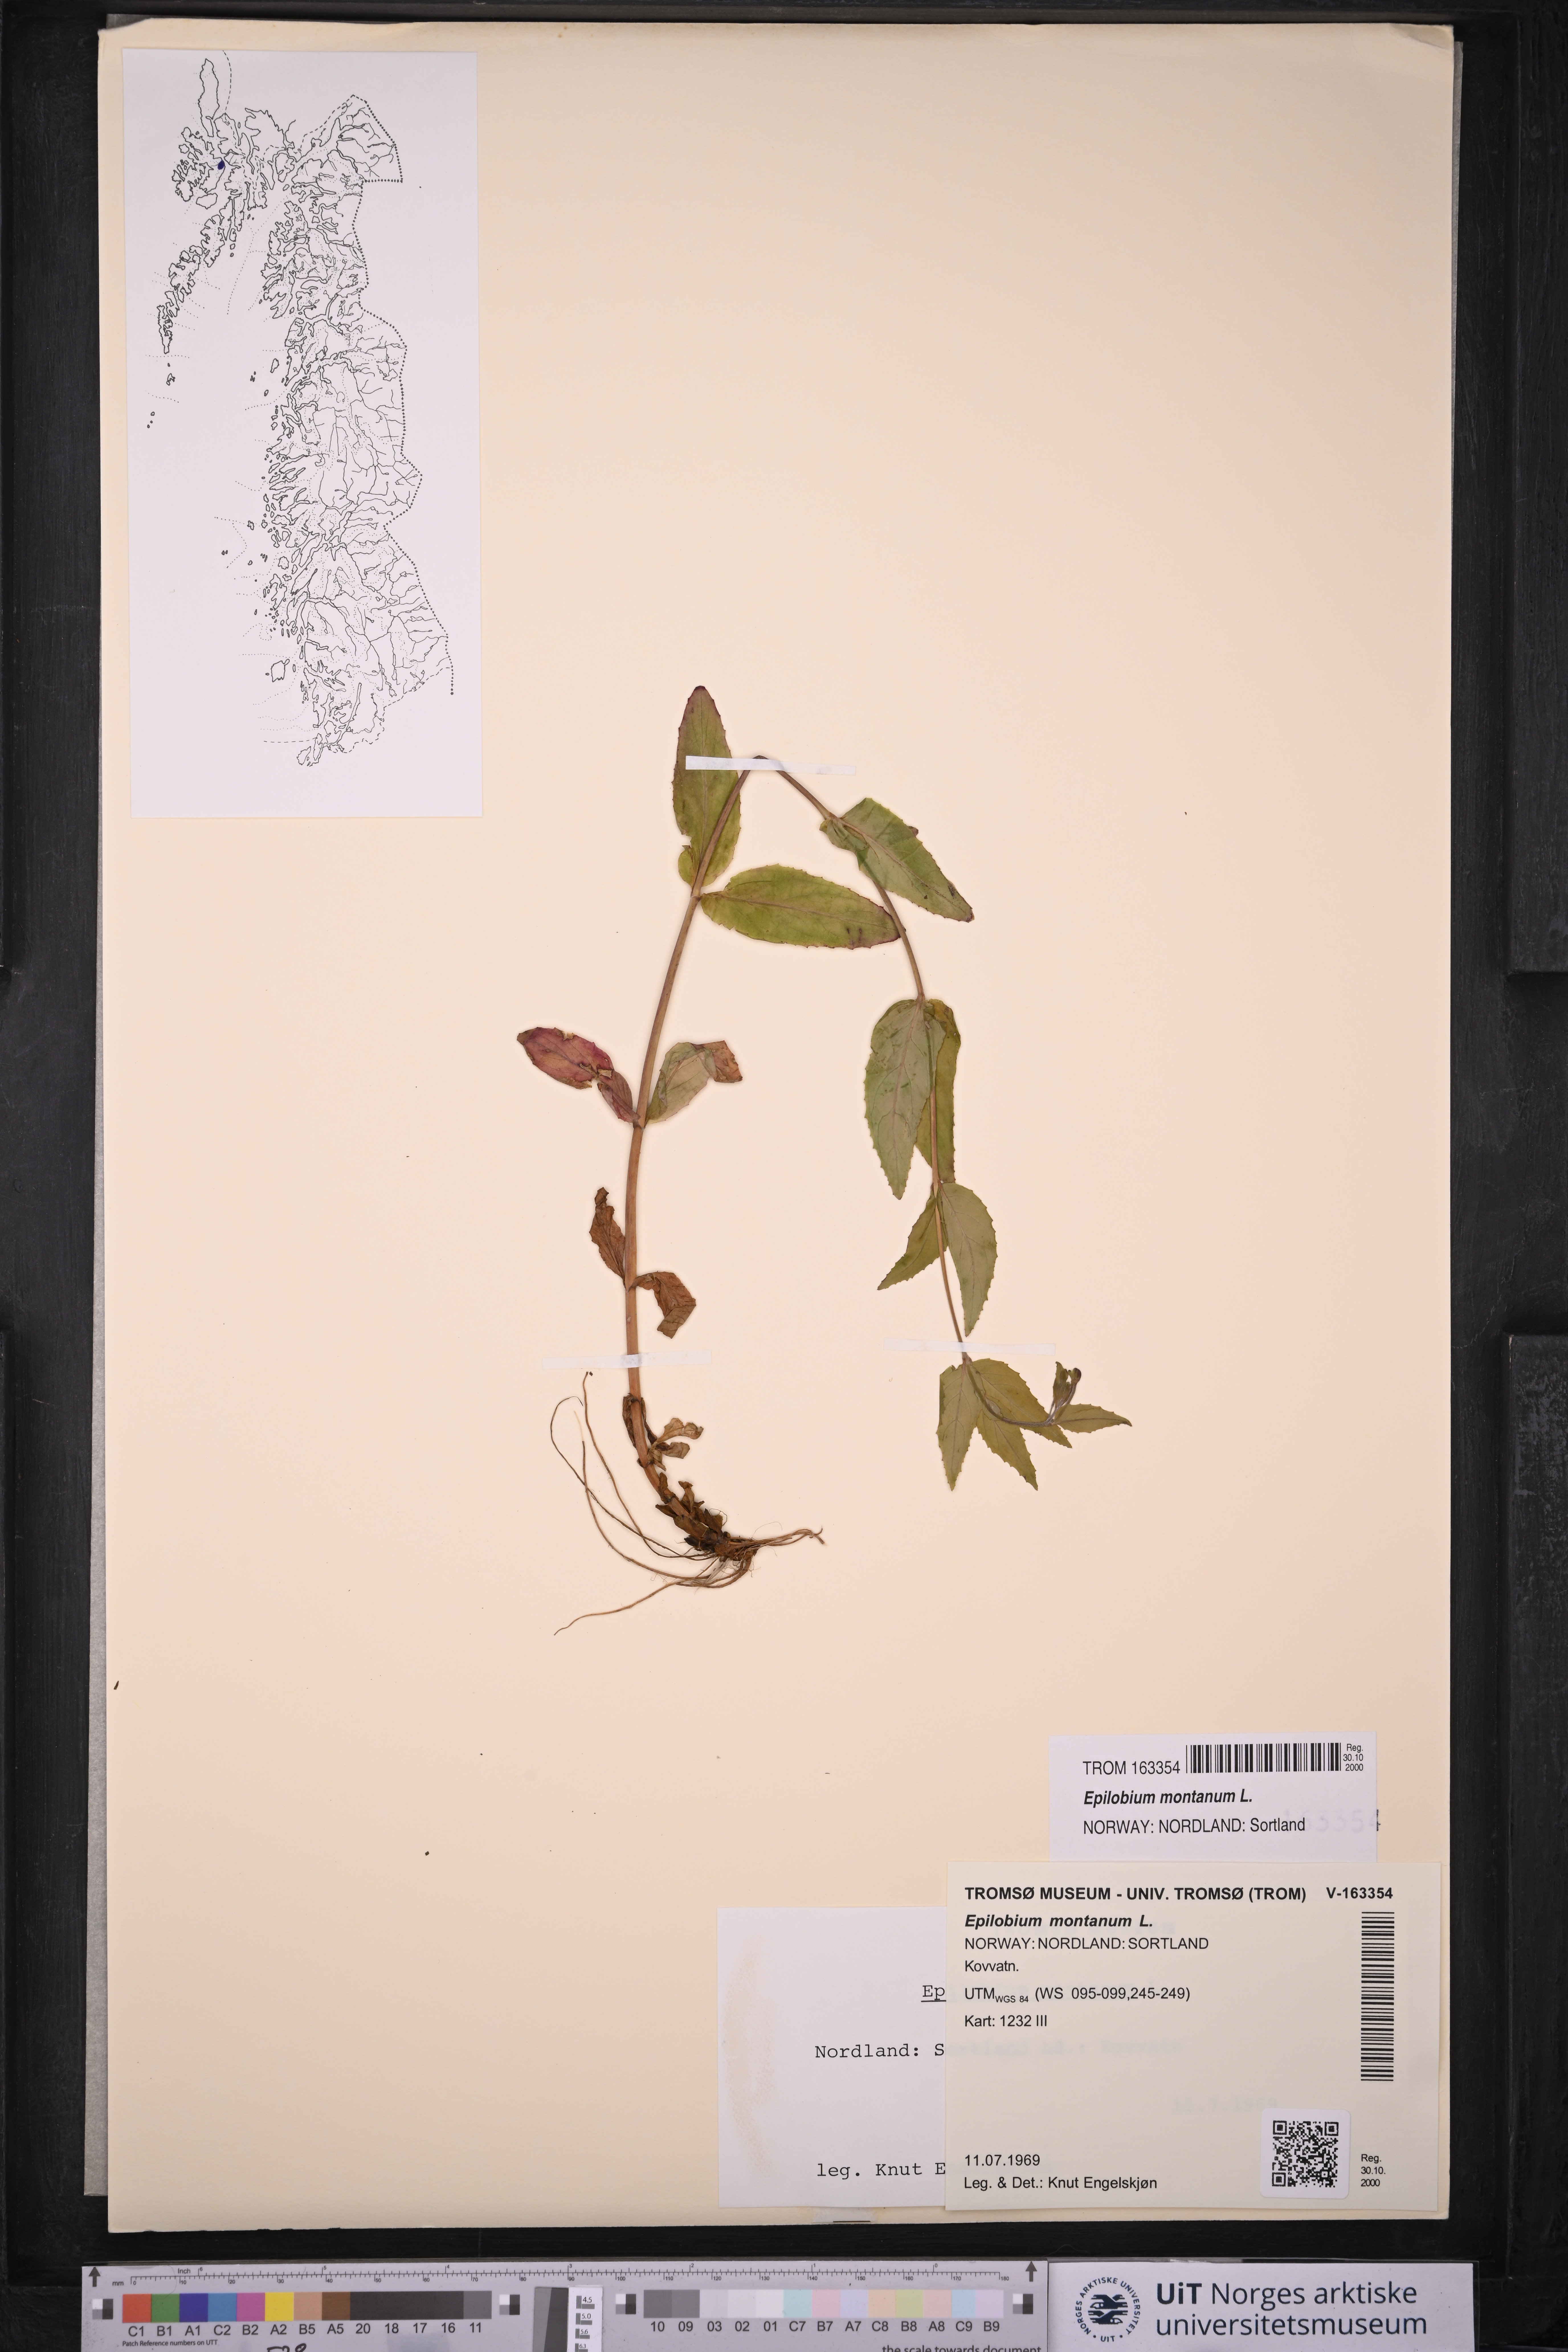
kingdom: Plantae
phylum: Tracheophyta
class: Magnoliopsida
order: Myrtales
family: Onagraceae
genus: Epilobium
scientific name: Epilobium montanum
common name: Broad-leaved willowherb
